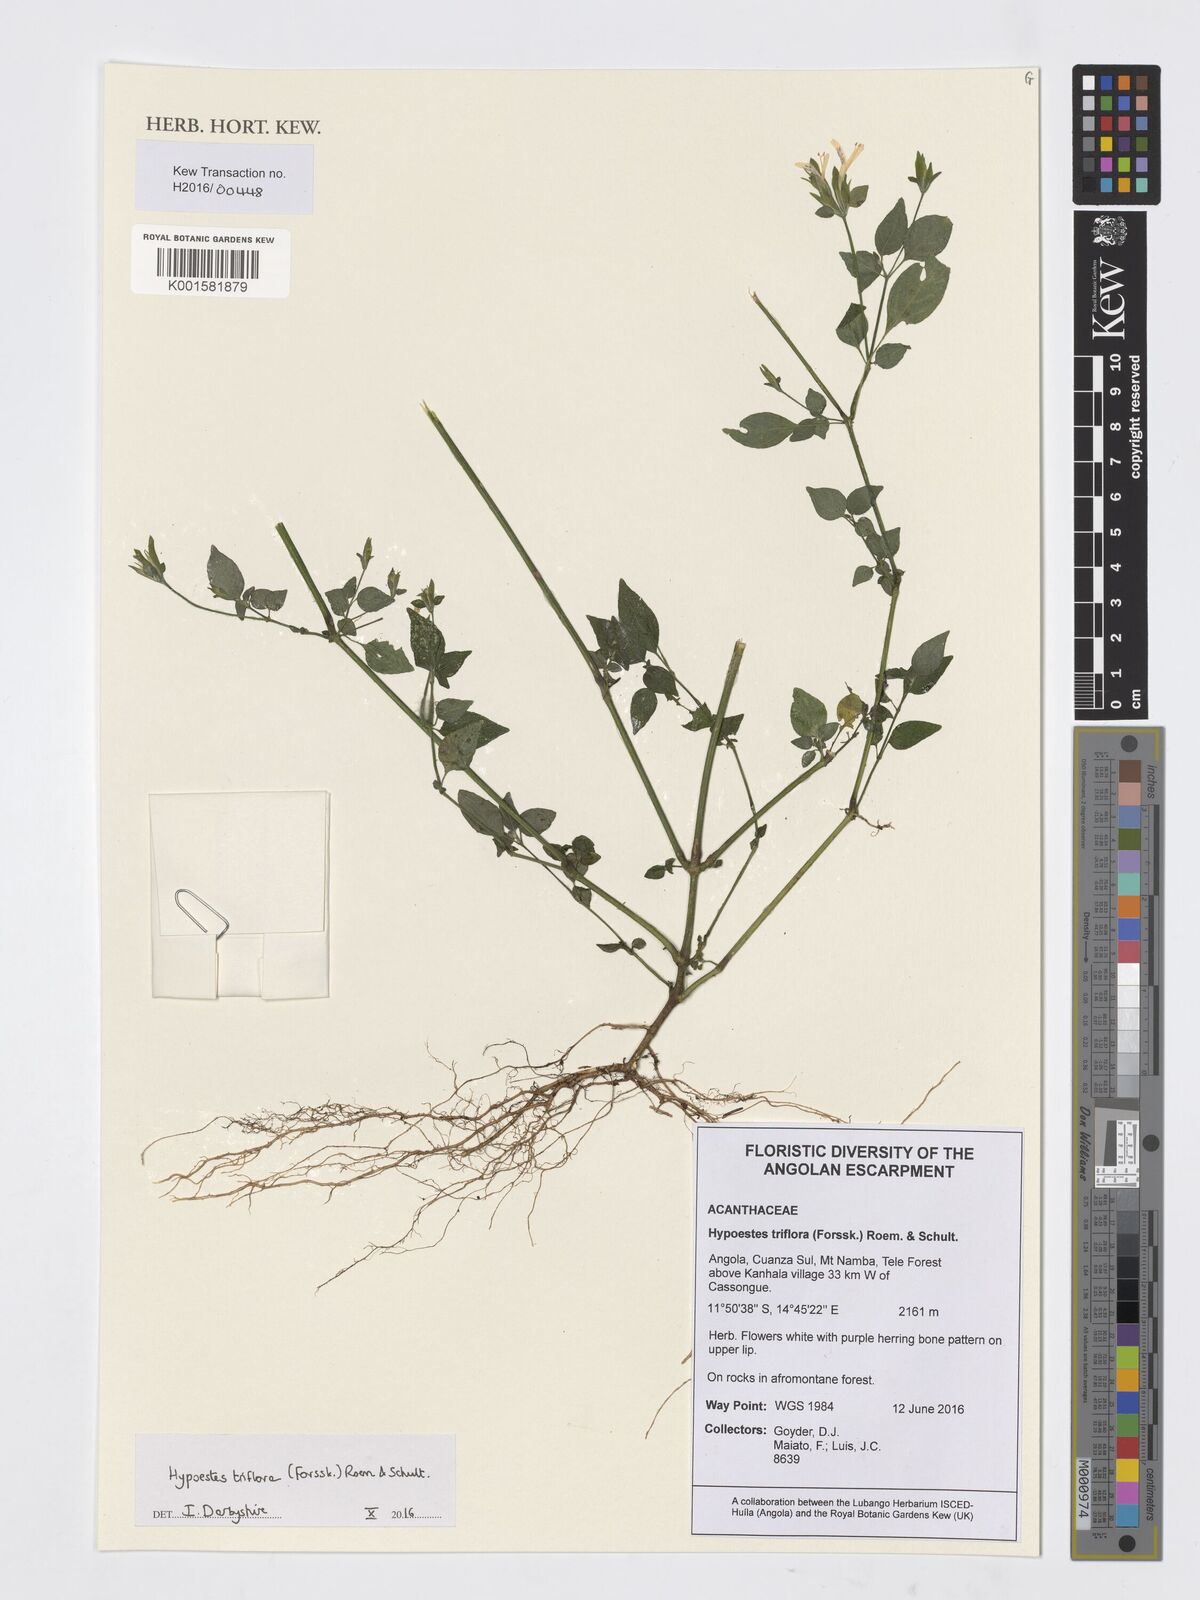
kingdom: Plantae
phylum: Tracheophyta
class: Magnoliopsida
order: Lamiales
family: Acanthaceae
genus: Hypoestes
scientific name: Hypoestes triflora
